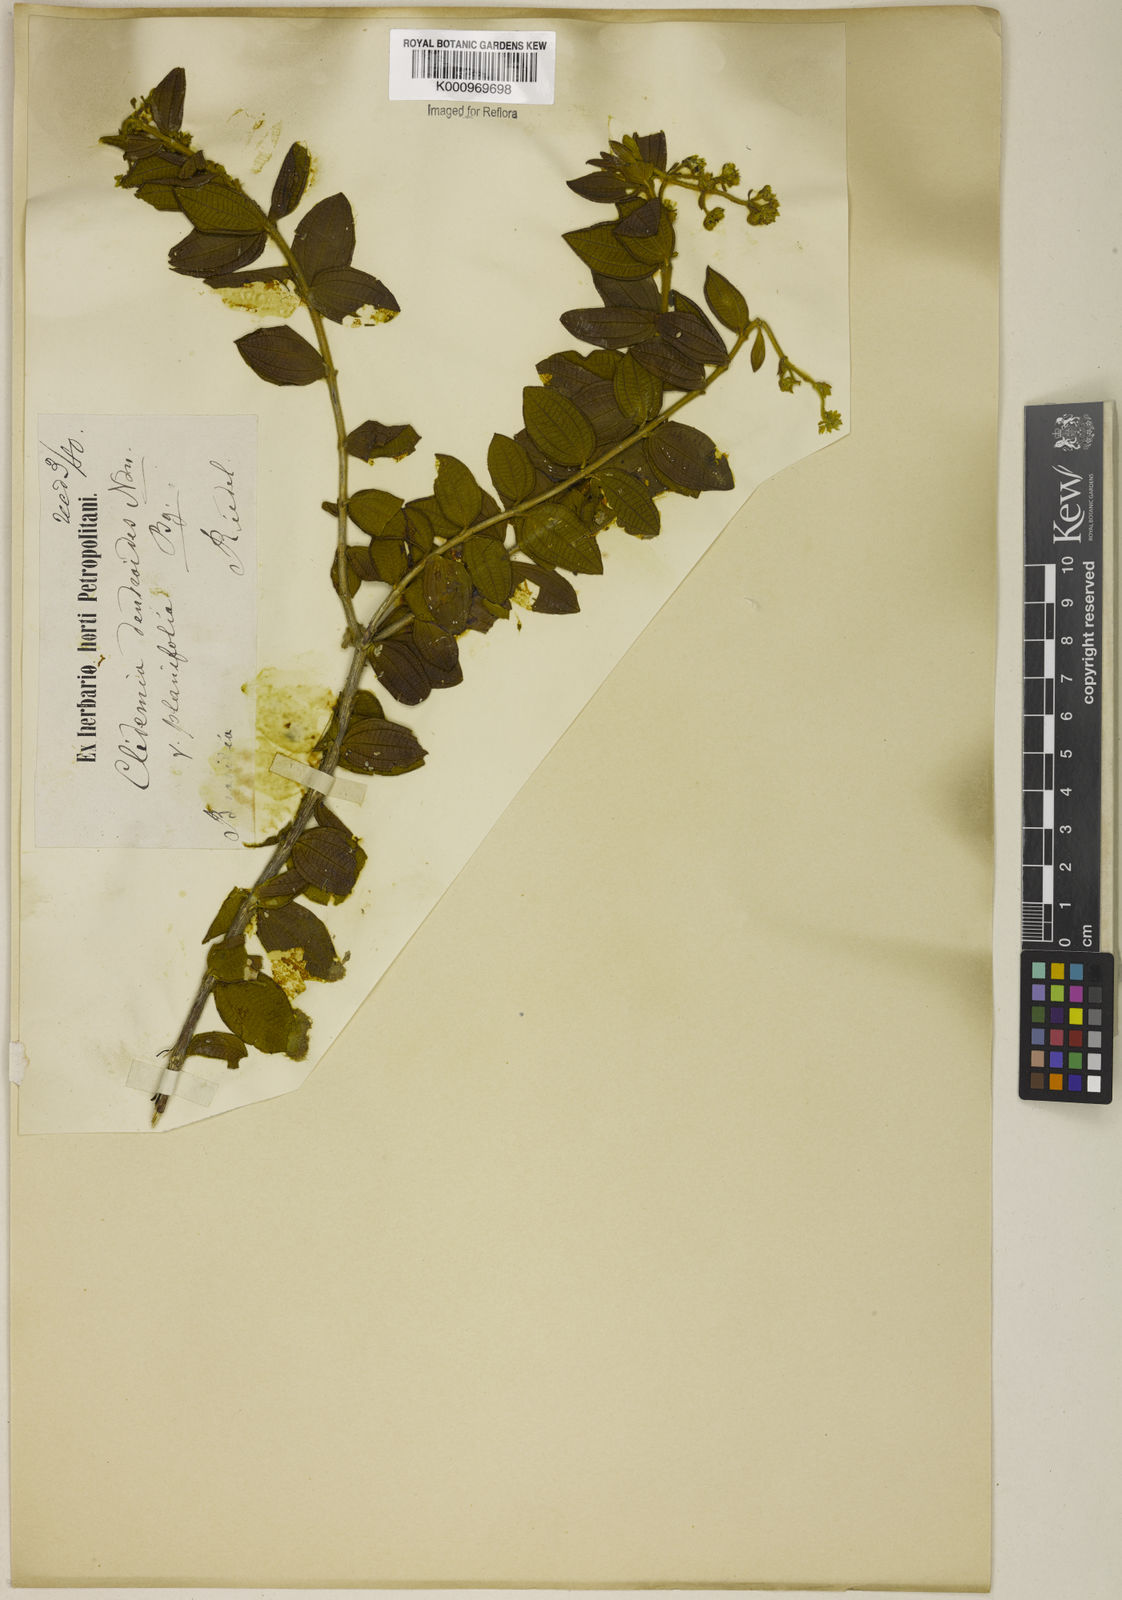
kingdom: Plantae
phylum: Tracheophyta
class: Magnoliopsida
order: Myrtales
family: Melastomataceae
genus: Miconia
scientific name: Miconia dendroides
